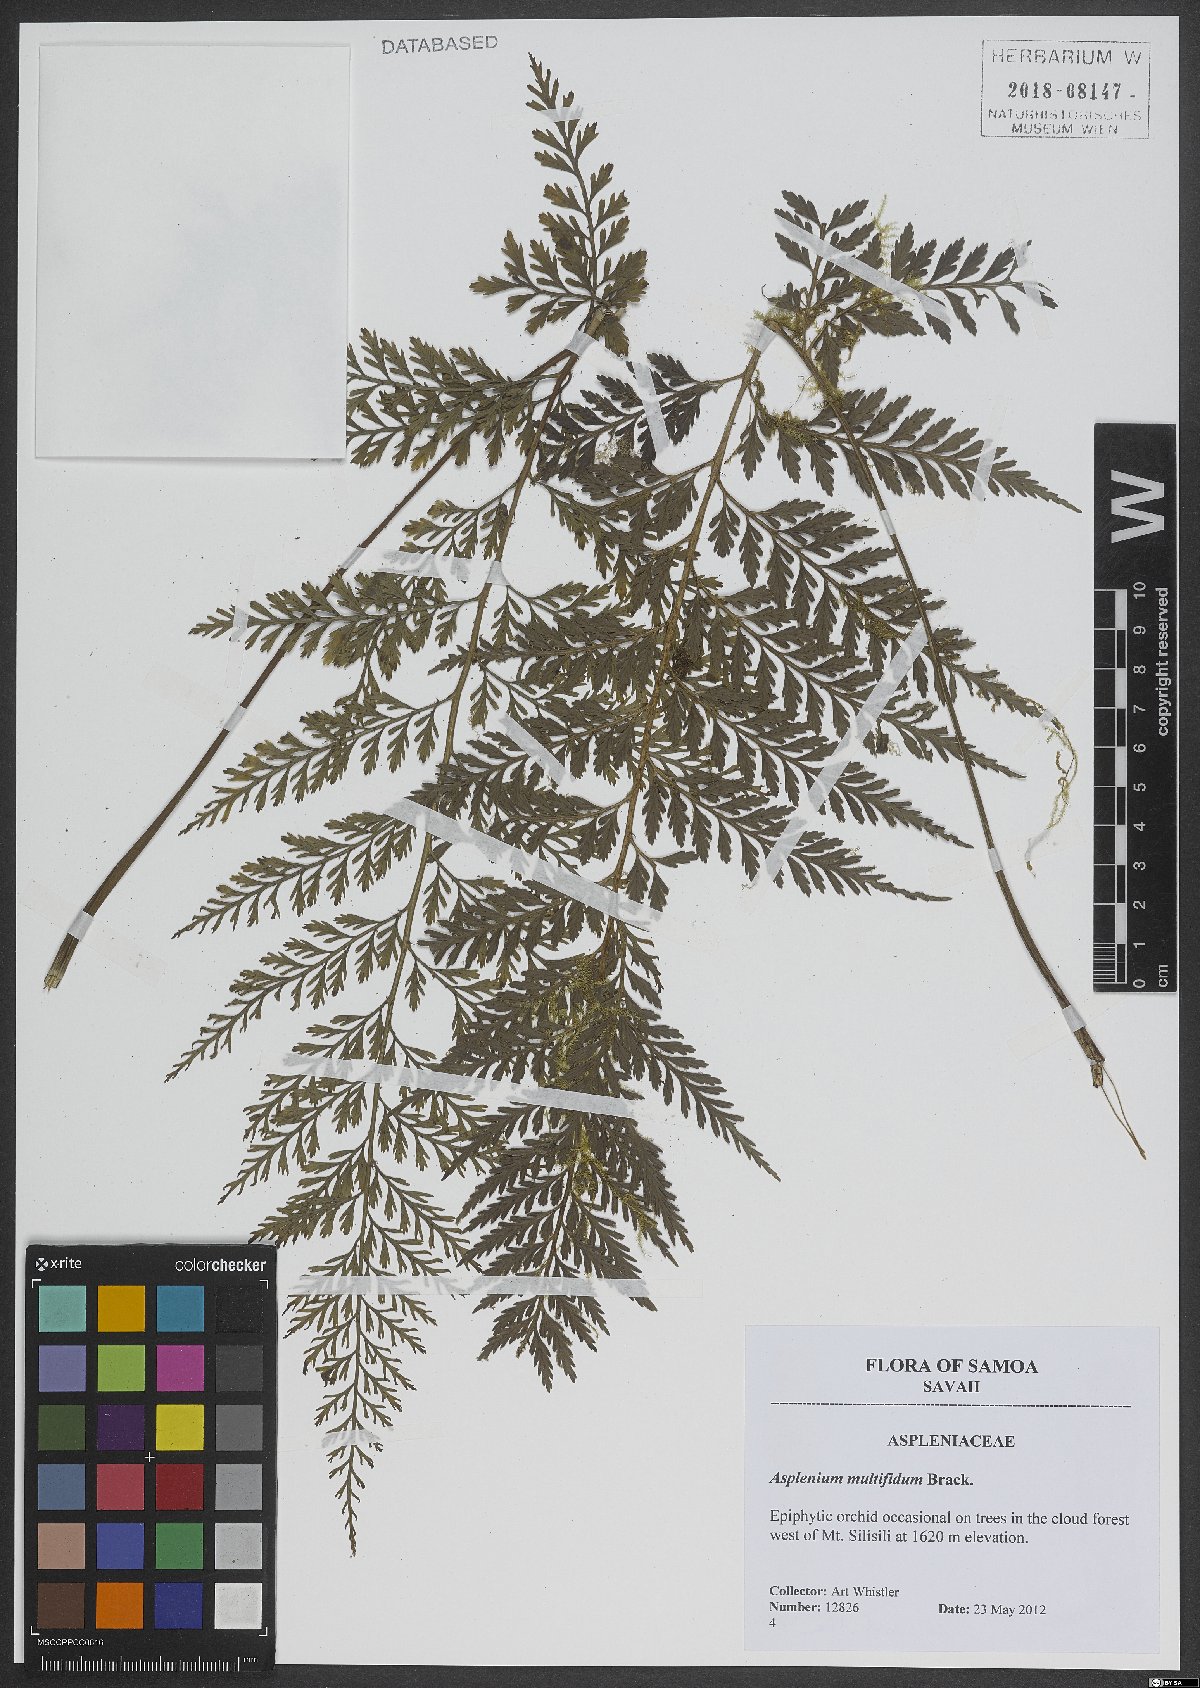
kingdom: Plantae
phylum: Tracheophyta
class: Polypodiopsida
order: Polypodiales
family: Aspleniaceae
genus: Asplenium
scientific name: Asplenium shuttleworthianum
